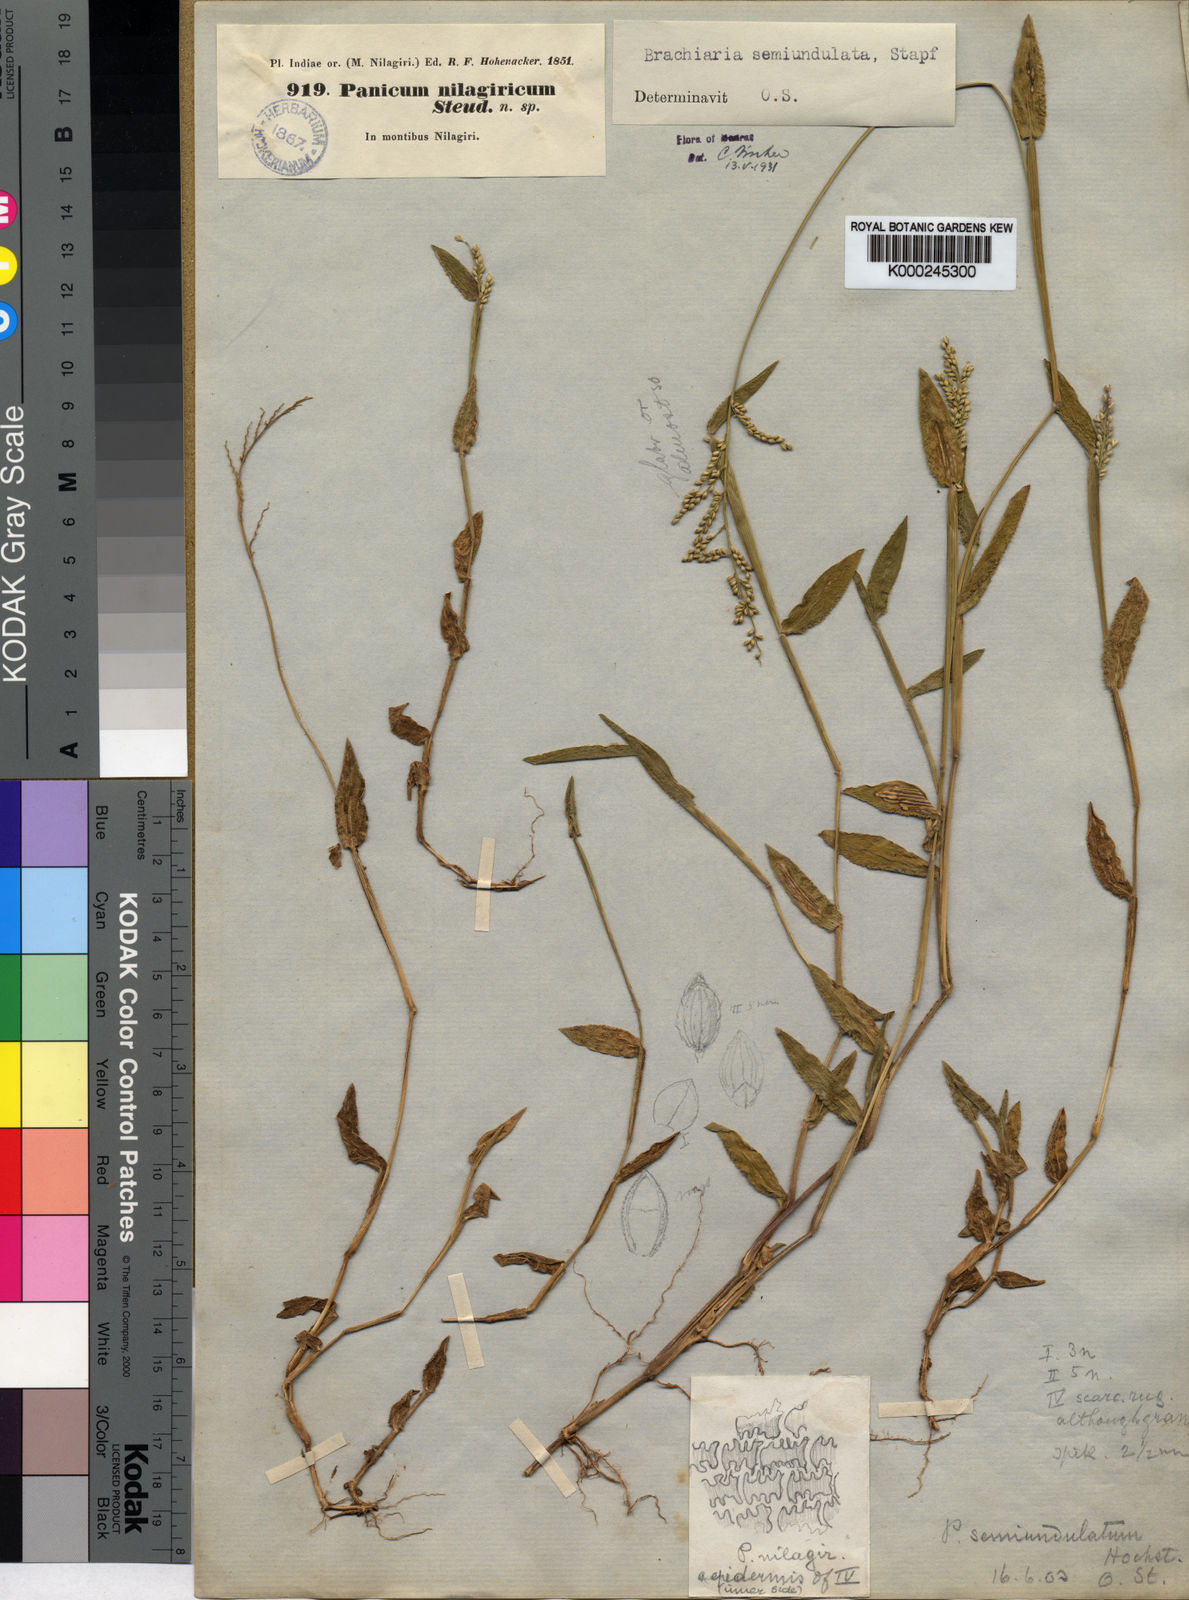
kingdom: Plantae
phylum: Tracheophyta
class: Liliopsida
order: Poales
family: Poaceae
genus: Urochloa
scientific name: Urochloa semiundulata
